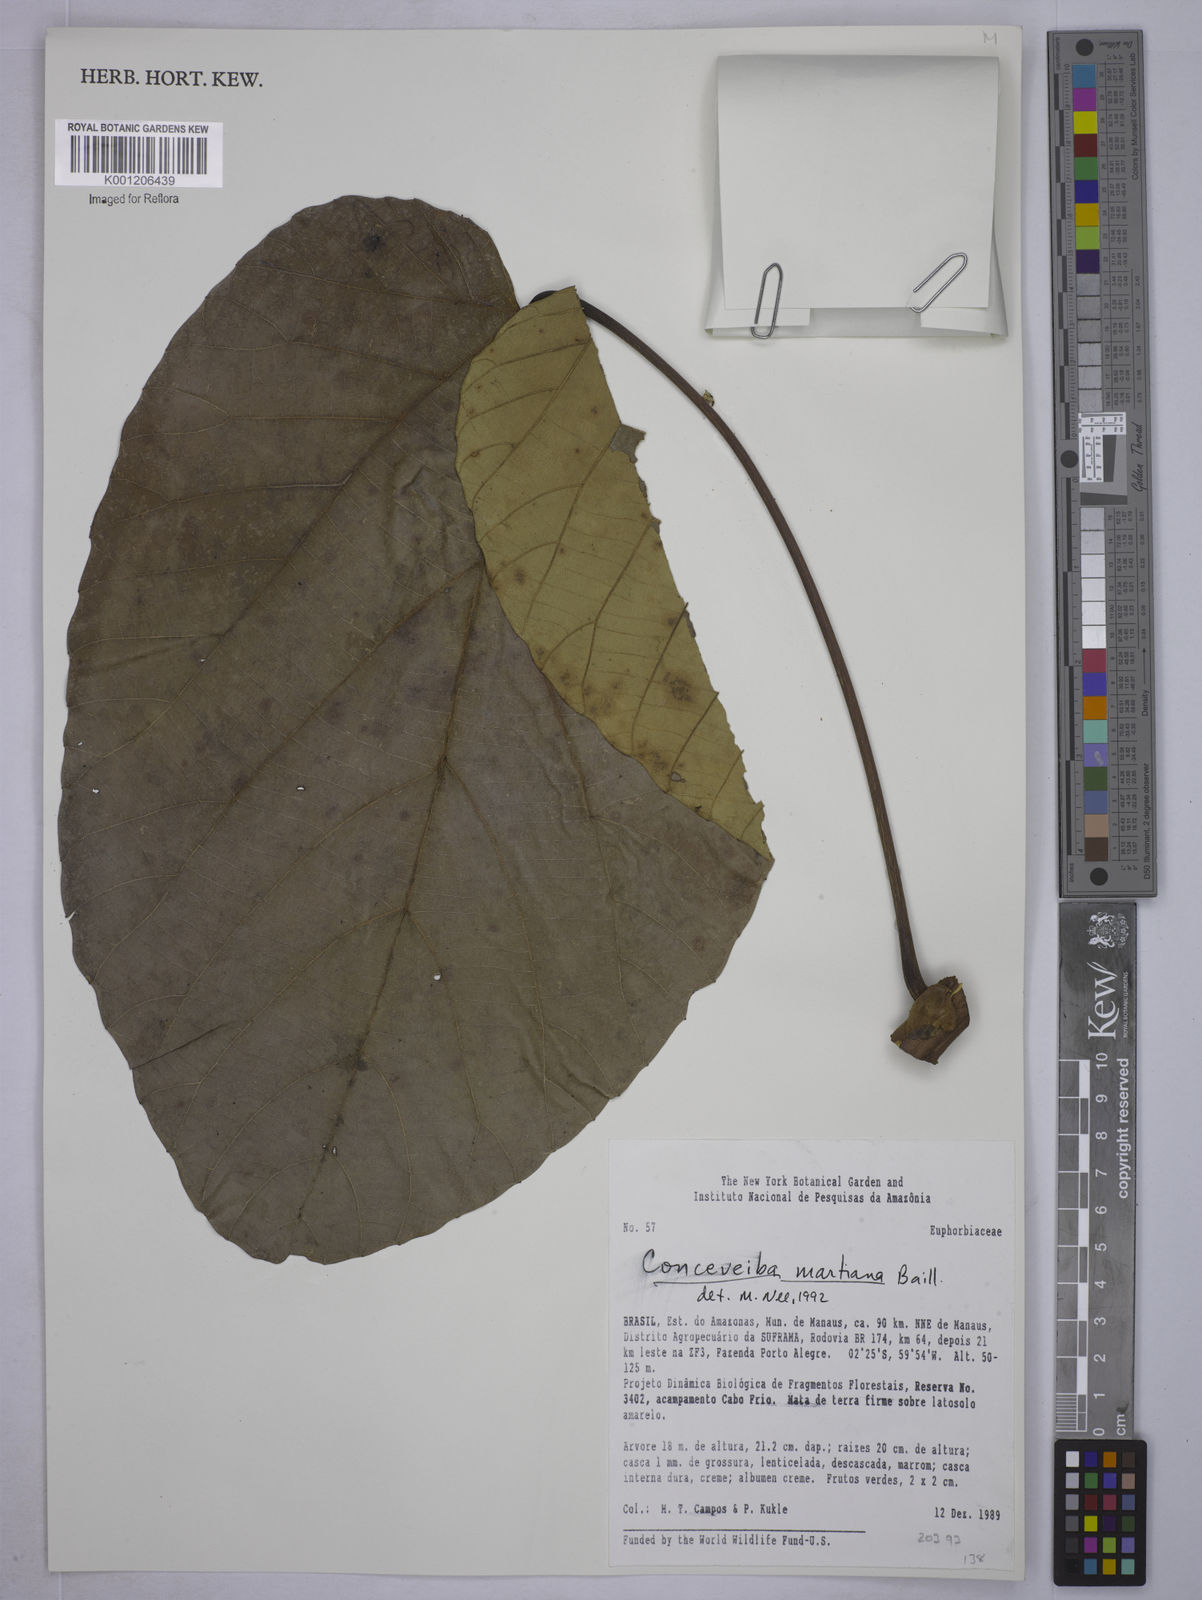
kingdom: Plantae
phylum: Tracheophyta
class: Magnoliopsida
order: Malpighiales
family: Euphorbiaceae
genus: Conceveiba
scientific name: Conceveiba martiana
